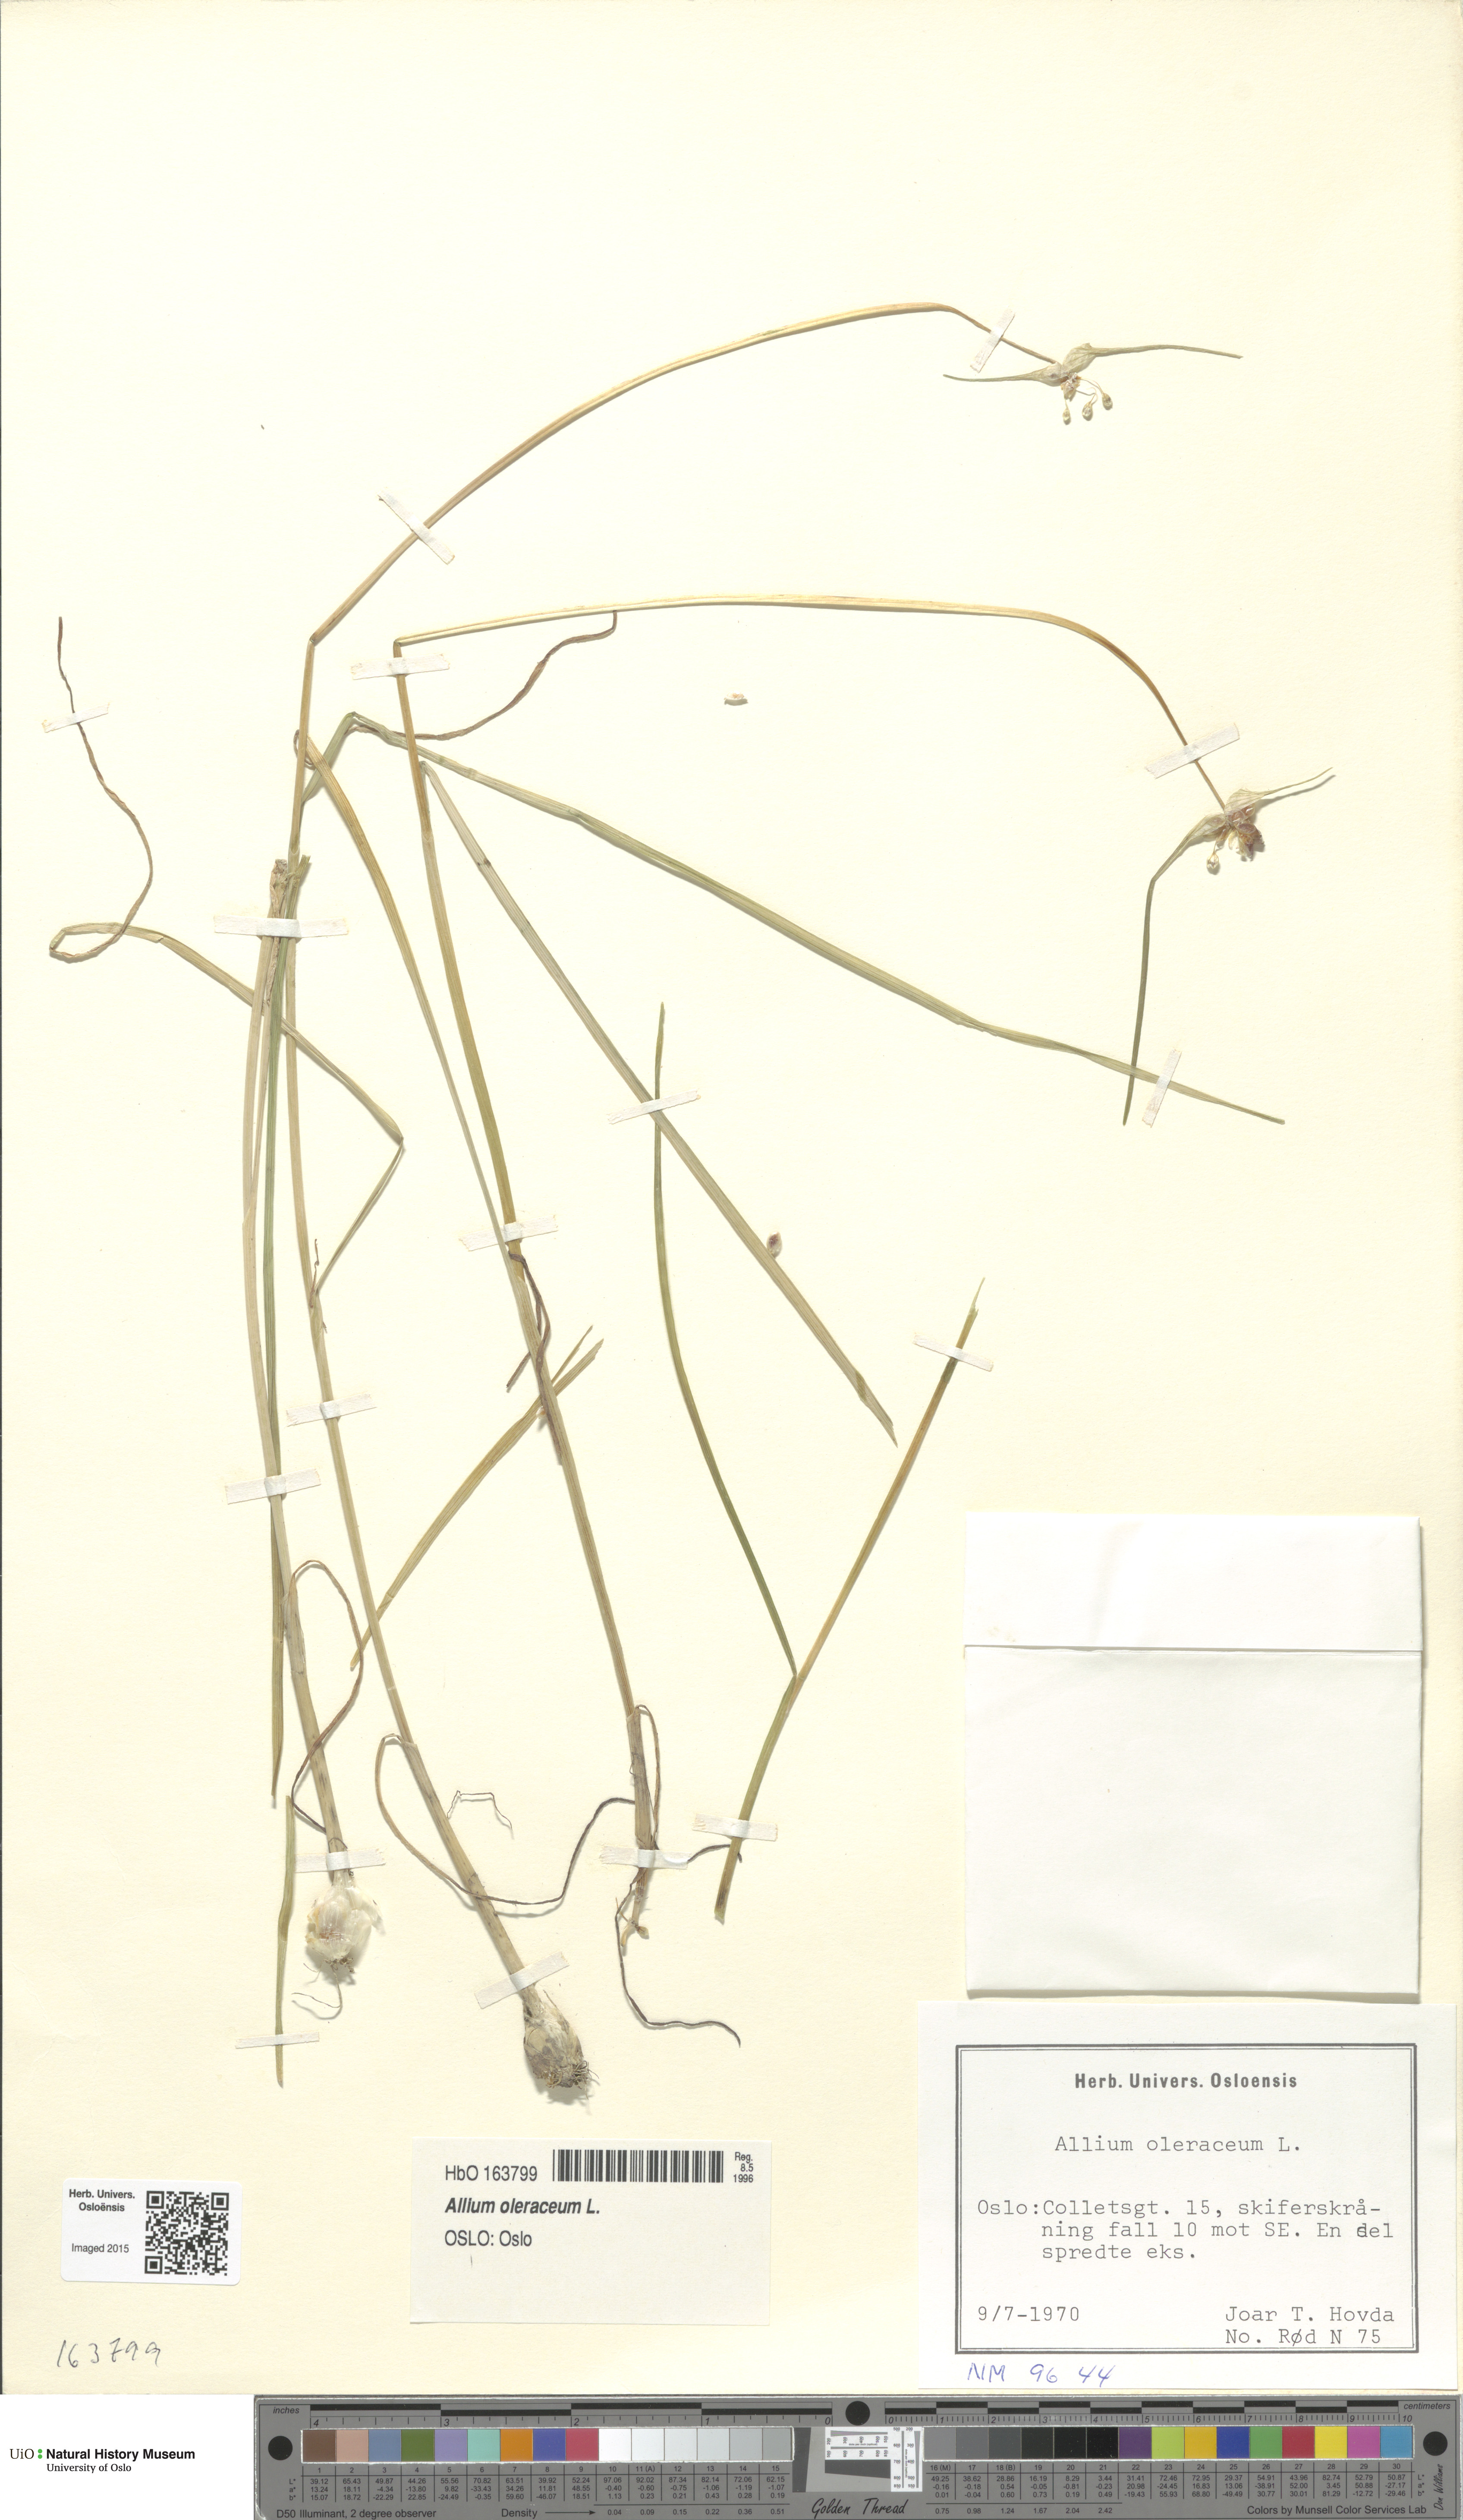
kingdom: Plantae
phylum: Tracheophyta
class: Liliopsida
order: Asparagales
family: Amaryllidaceae
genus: Allium
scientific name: Allium oleraceum
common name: Field garlic
